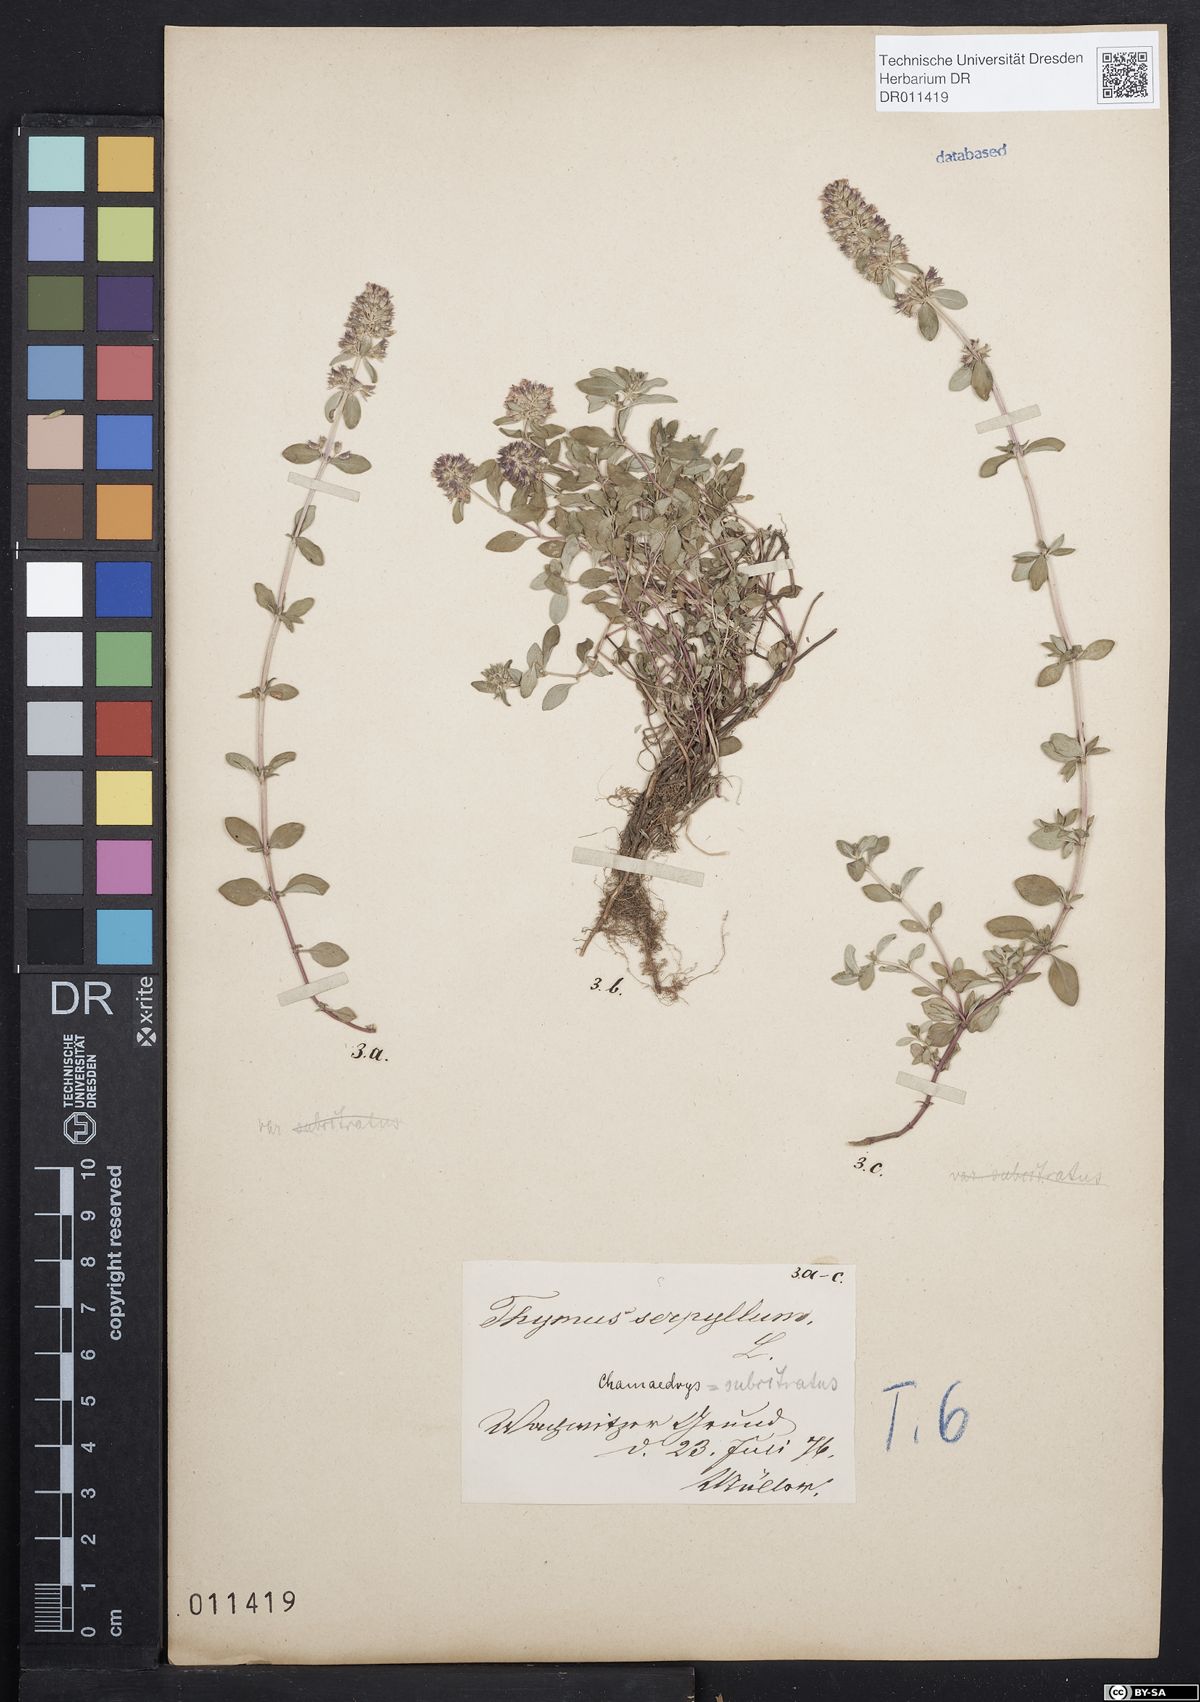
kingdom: Plantae
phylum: Tracheophyta
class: Magnoliopsida
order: Lamiales
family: Lamiaceae
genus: Thymus
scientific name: Thymus pulegioides
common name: Large thyme
